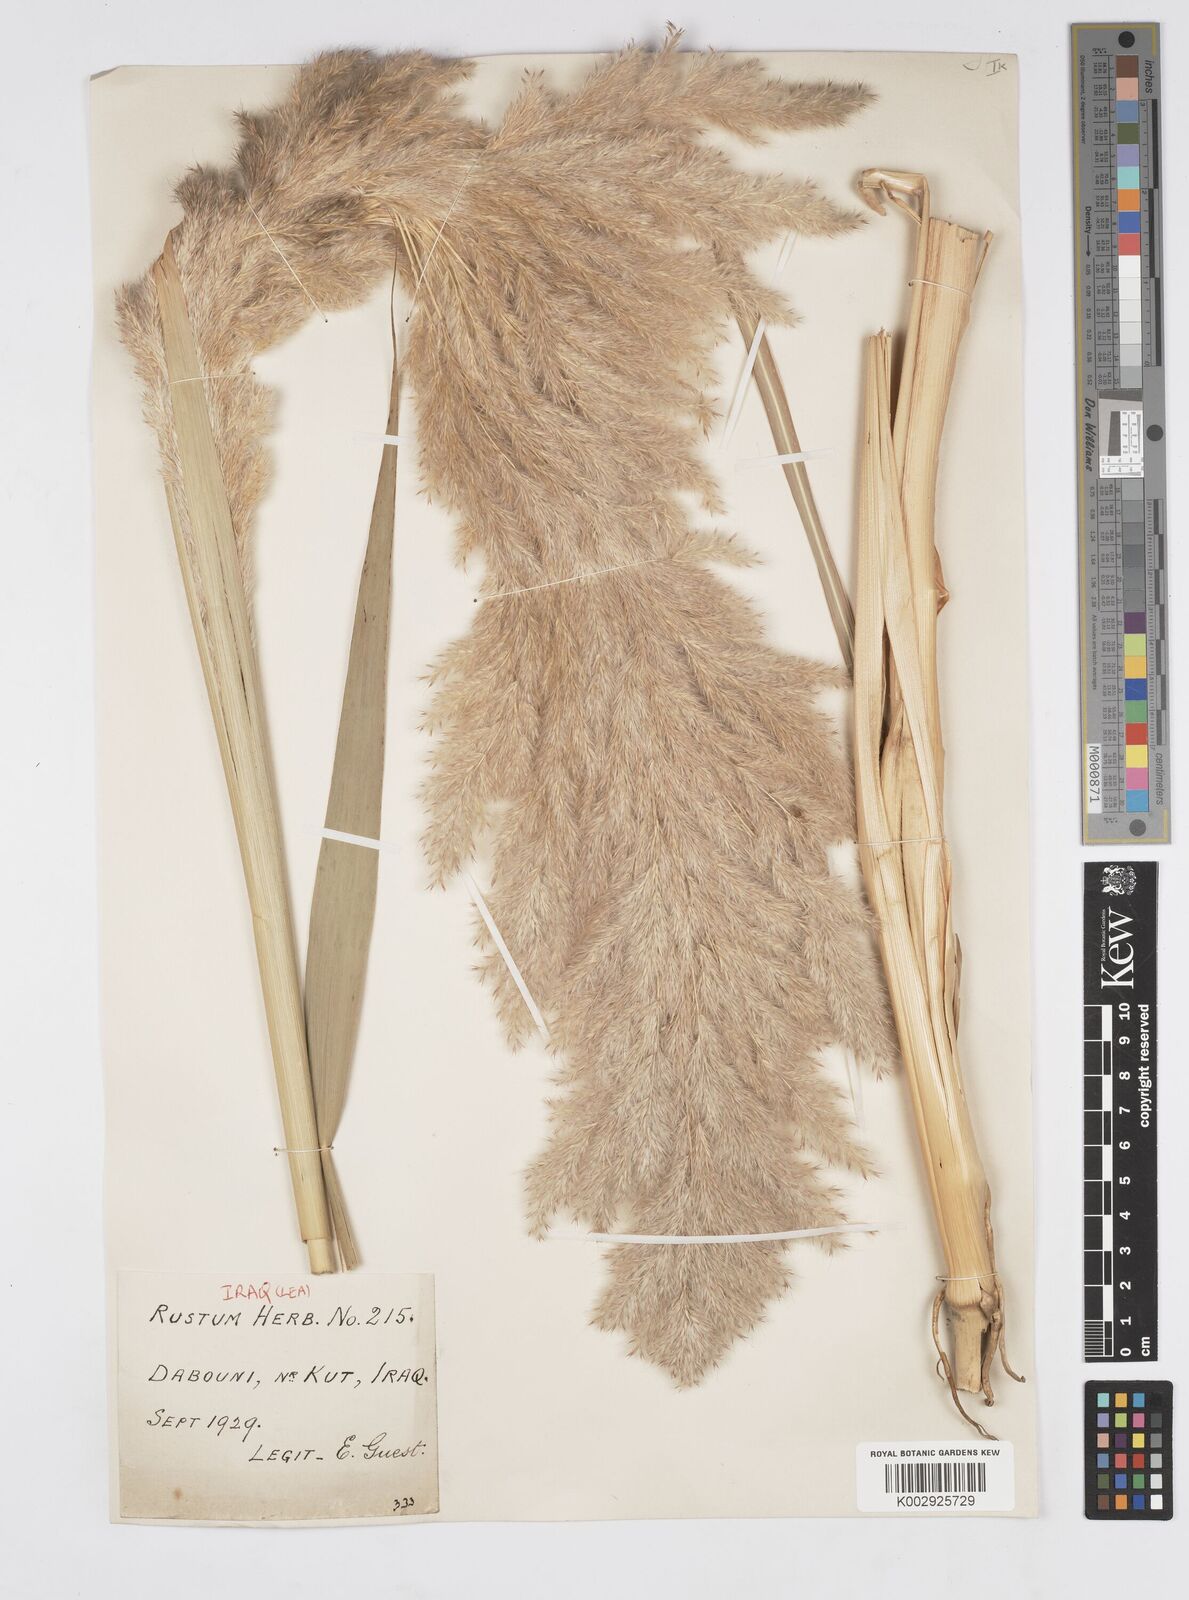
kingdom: Plantae
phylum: Tracheophyta
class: Liliopsida
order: Poales
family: Poaceae
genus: Tripidium
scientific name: Tripidium ravennae
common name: Ravenna grass
